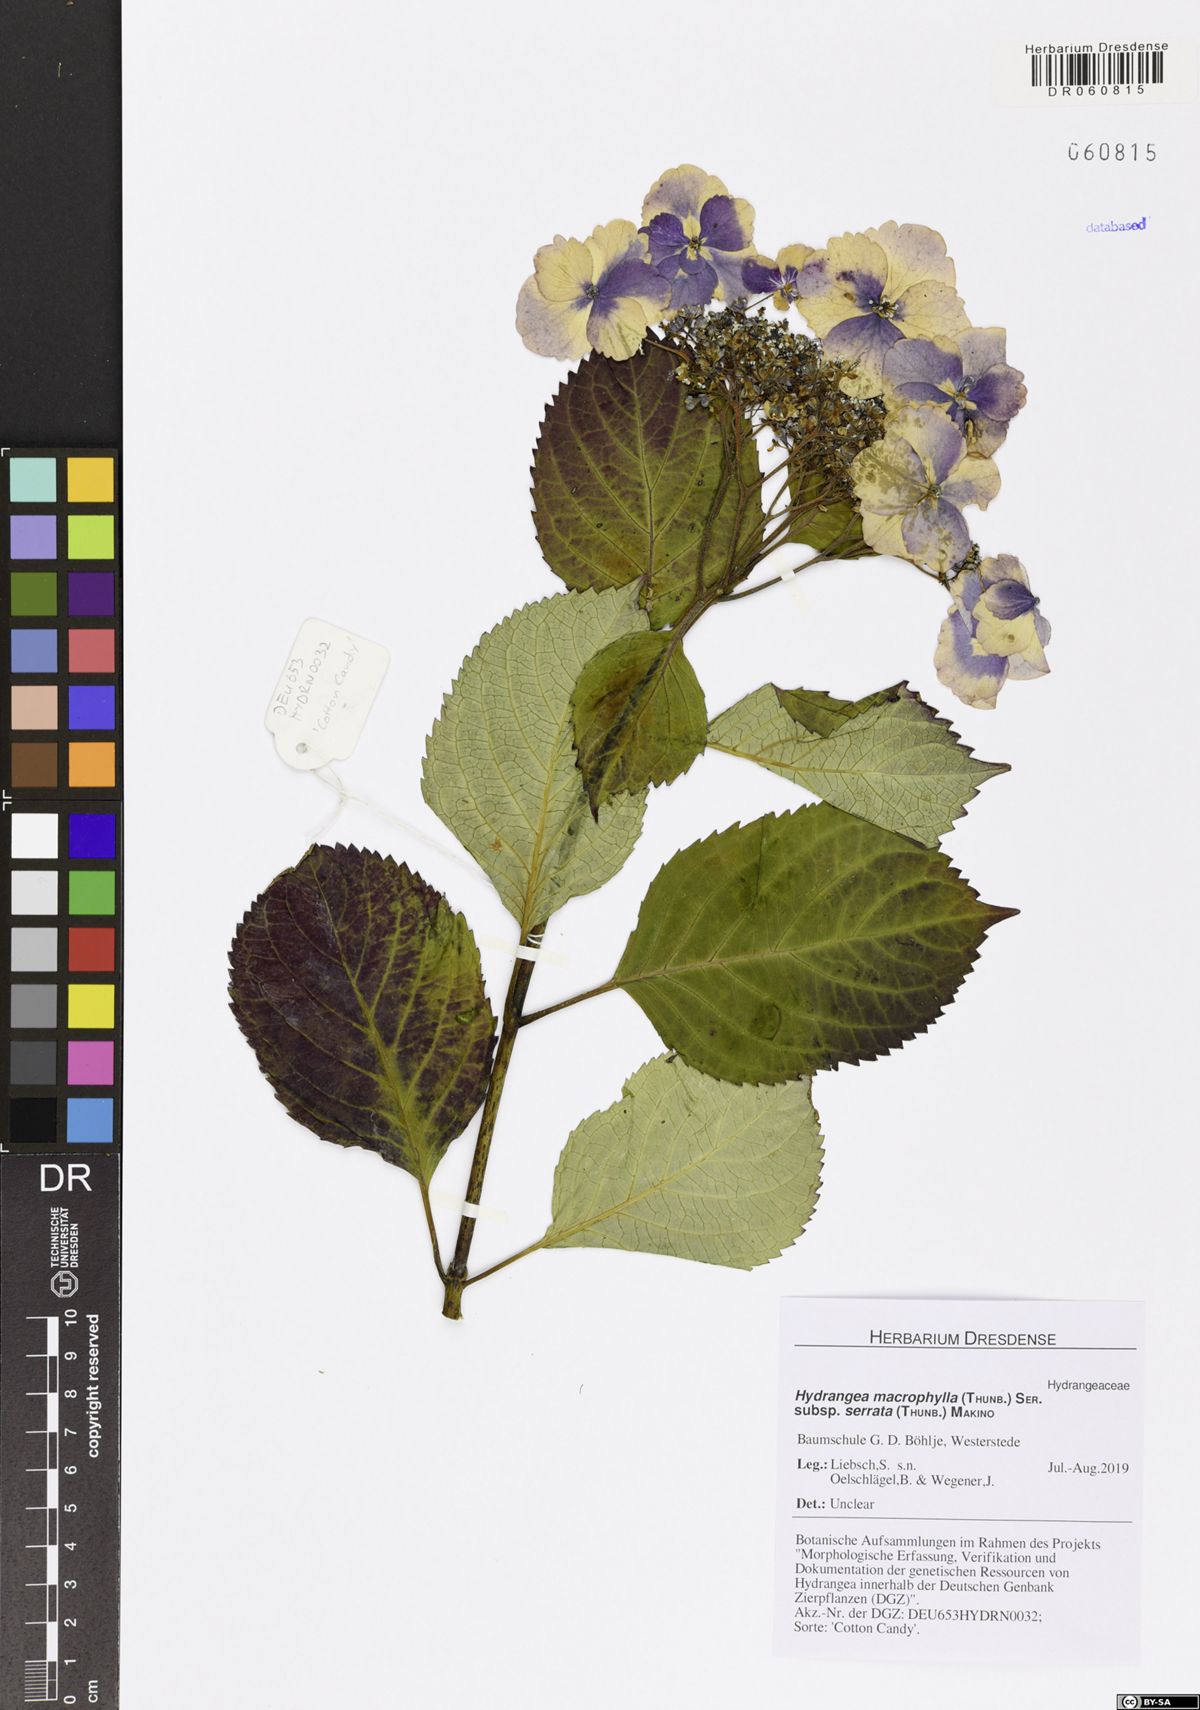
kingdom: Plantae
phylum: Tracheophyta
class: Magnoliopsida
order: Cornales
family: Hydrangeaceae
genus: Hydrangea
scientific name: Hydrangea serrata
